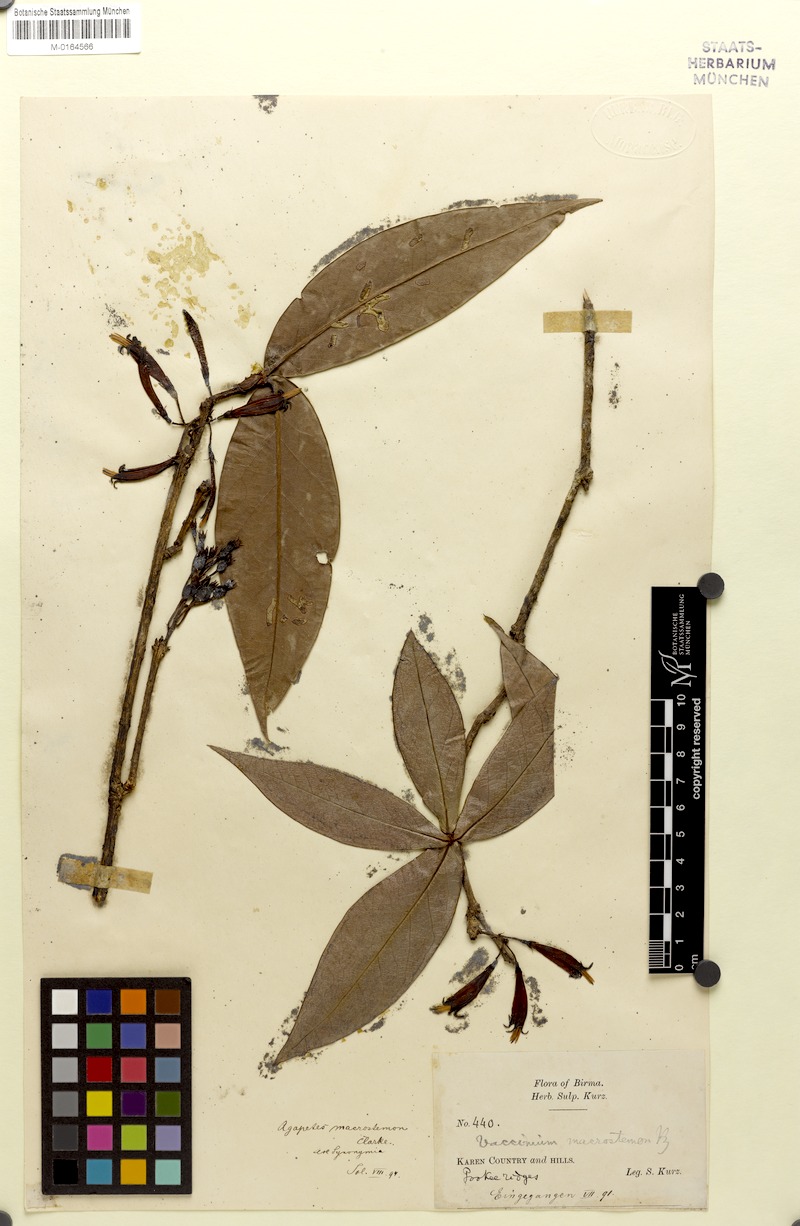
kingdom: Plantae
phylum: Tracheophyta
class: Magnoliopsida
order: Ericales
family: Ericaceae
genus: Agapetes
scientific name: Agapetes macrostemon
